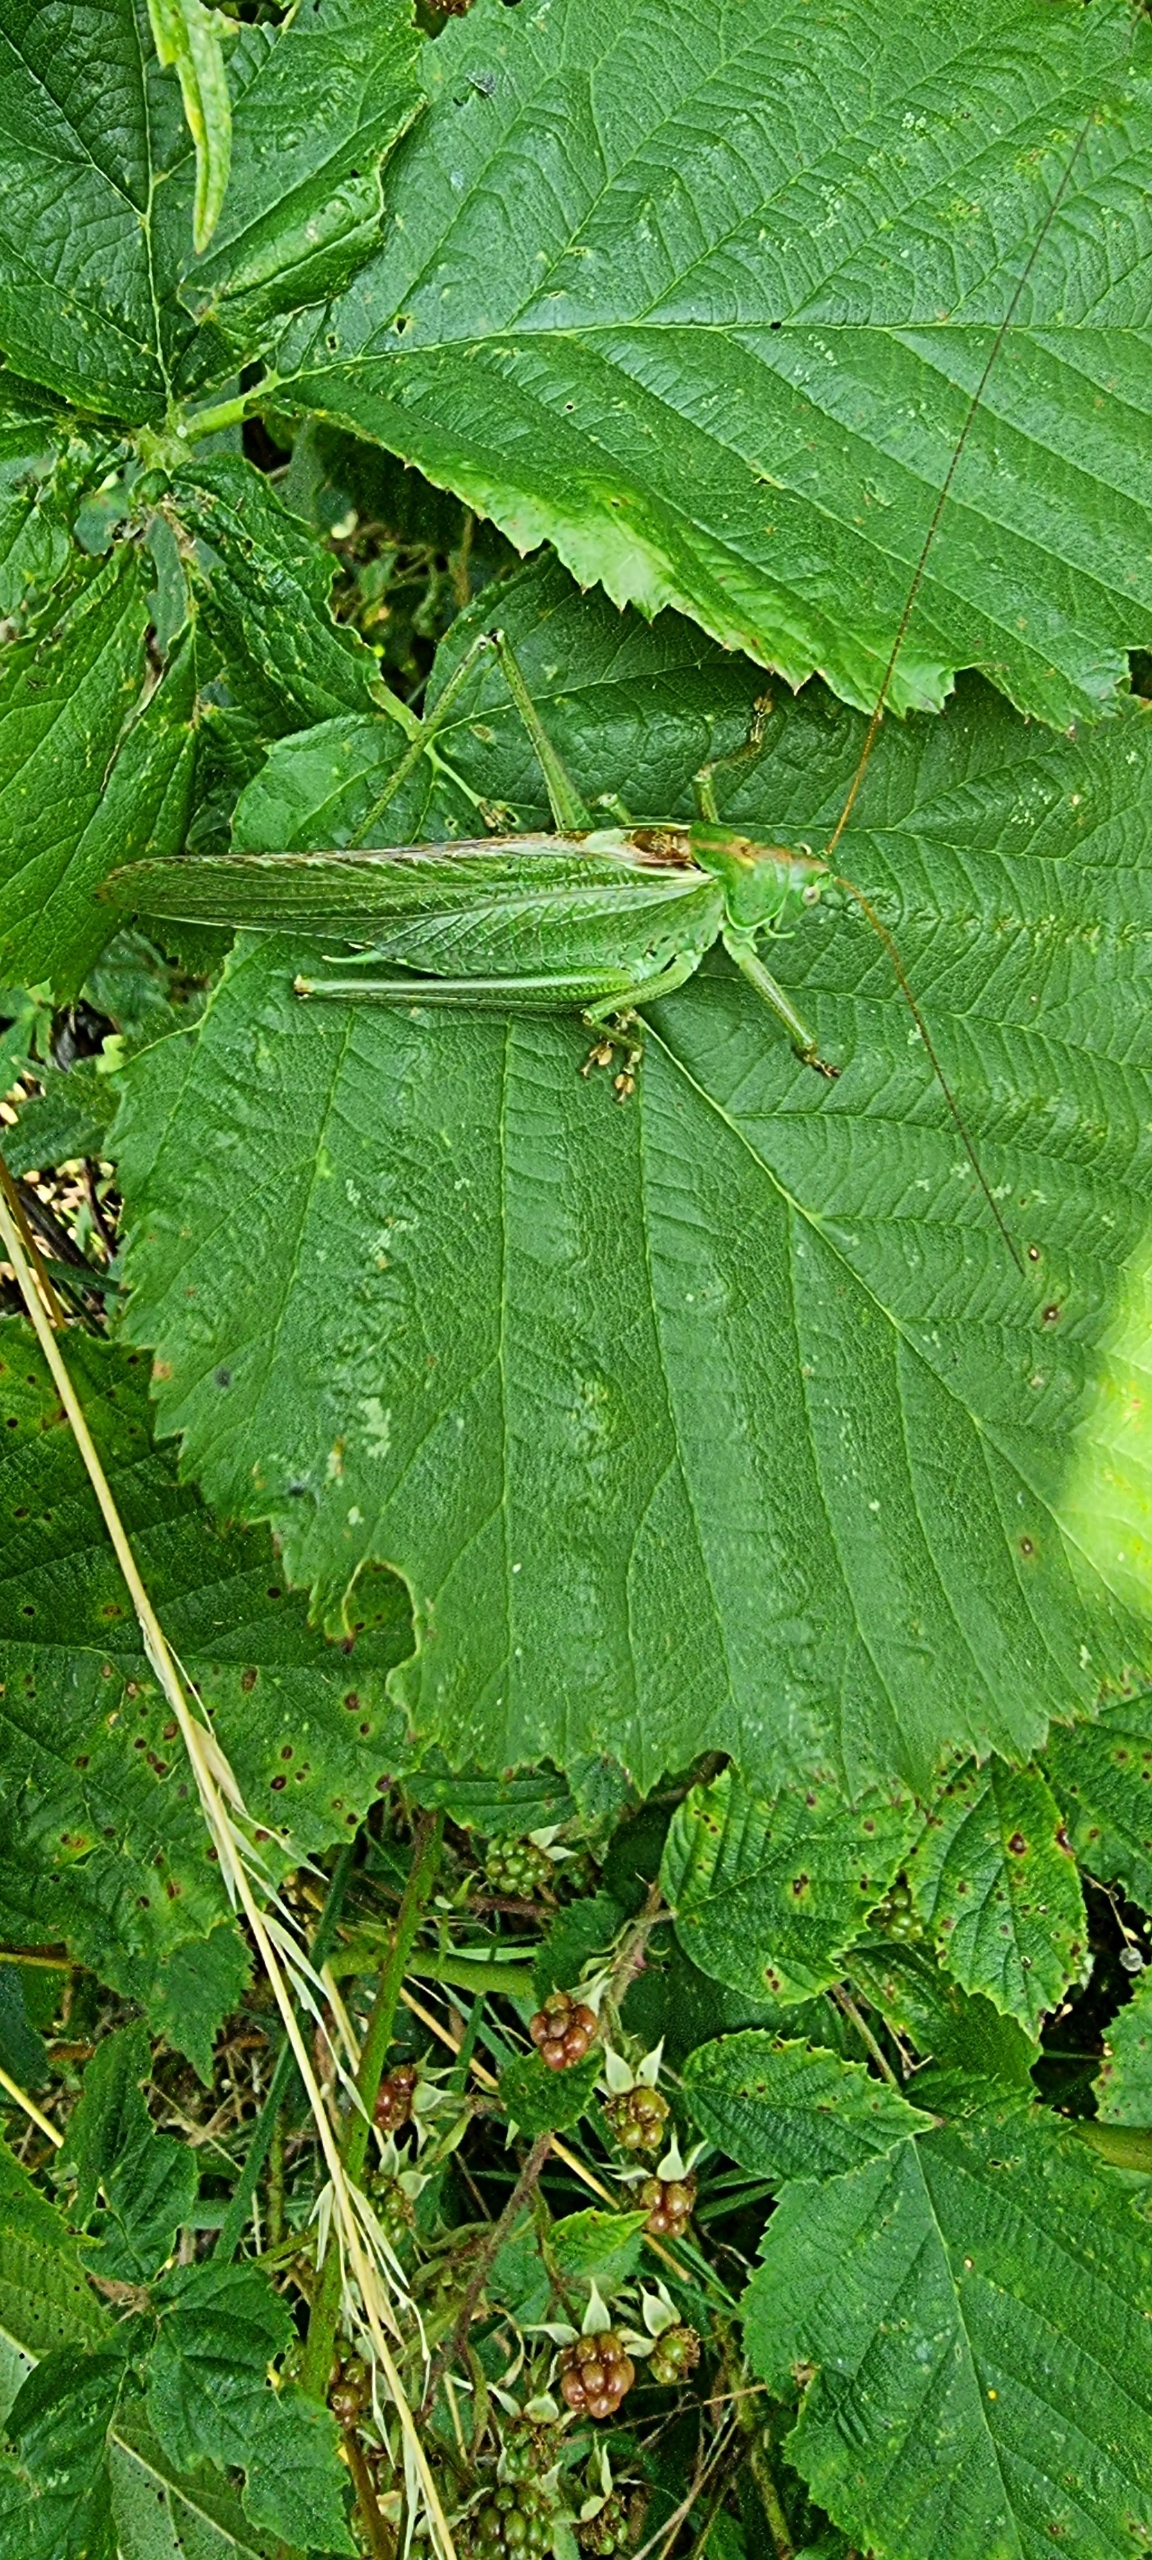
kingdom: Animalia
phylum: Arthropoda
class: Insecta
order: Orthoptera
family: Tettigoniidae
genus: Tettigonia
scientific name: Tettigonia viridissima
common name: Stor grøn løvgræshoppe
